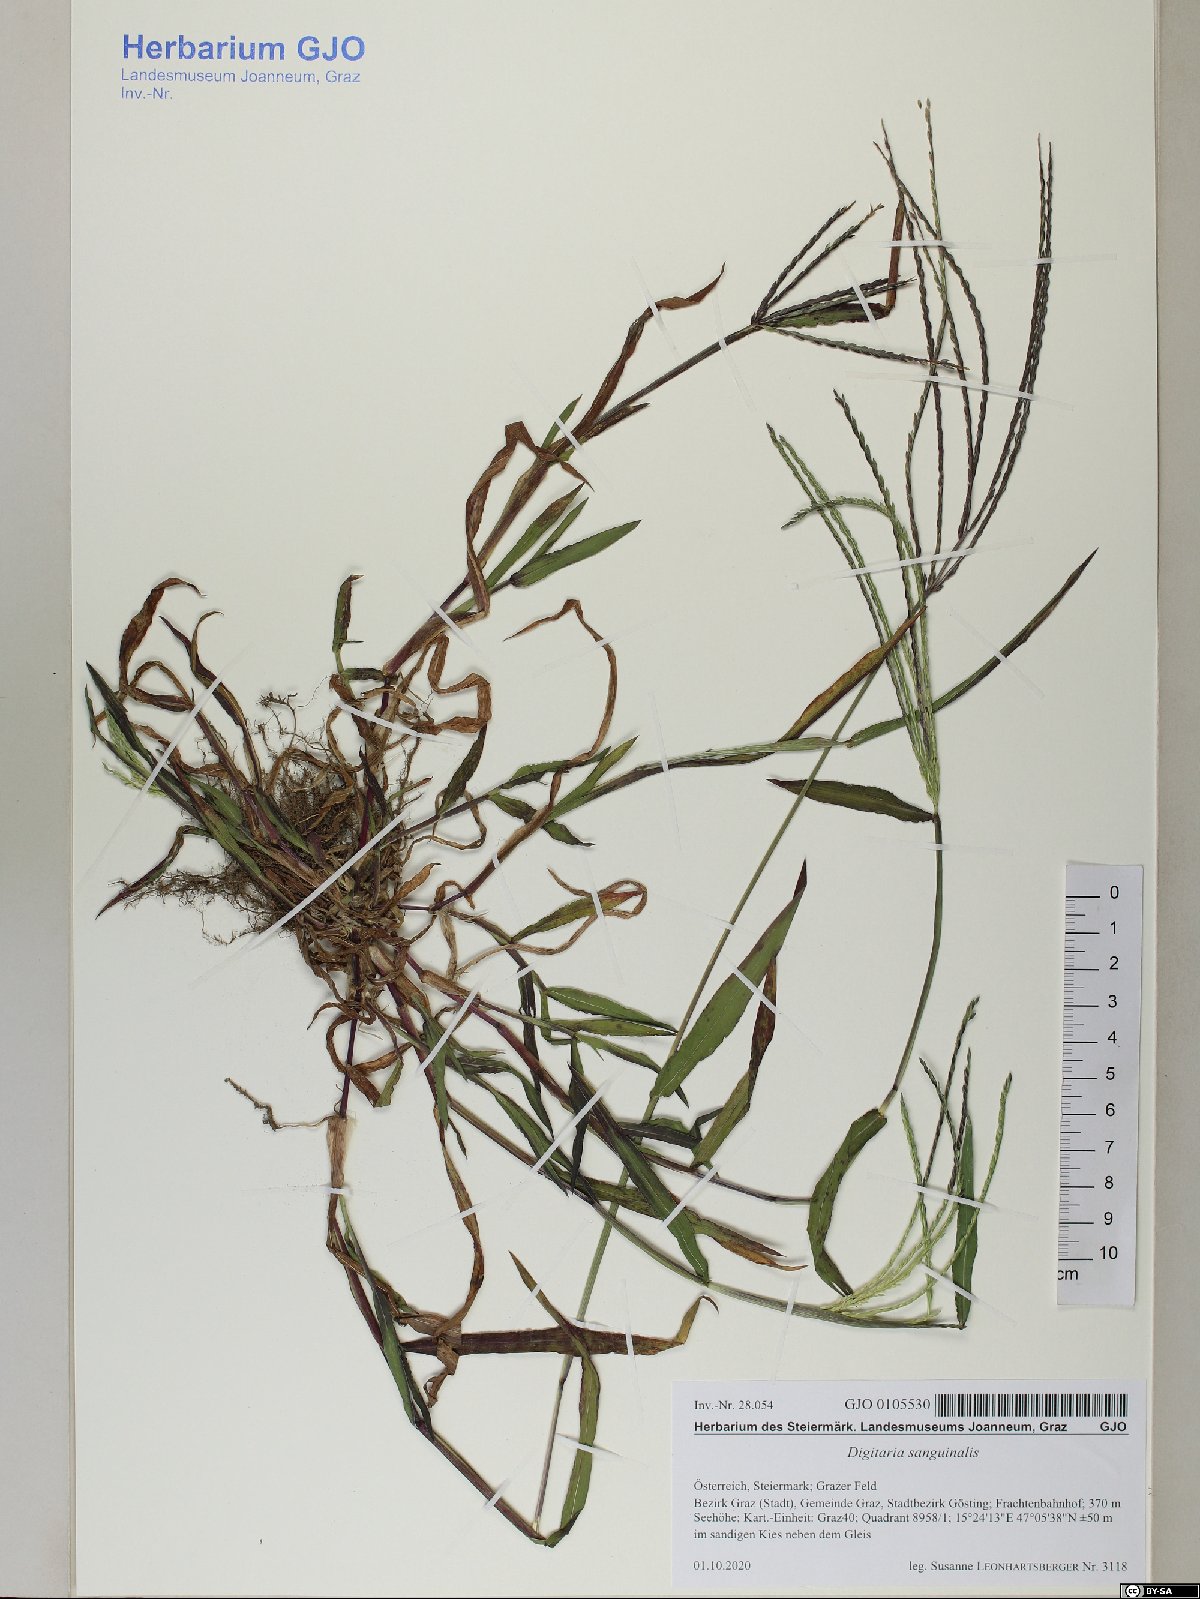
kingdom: Plantae
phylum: Tracheophyta
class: Liliopsida
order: Poales
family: Poaceae
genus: Digitaria
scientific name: Digitaria sanguinalis
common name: Hairy crabgrass
